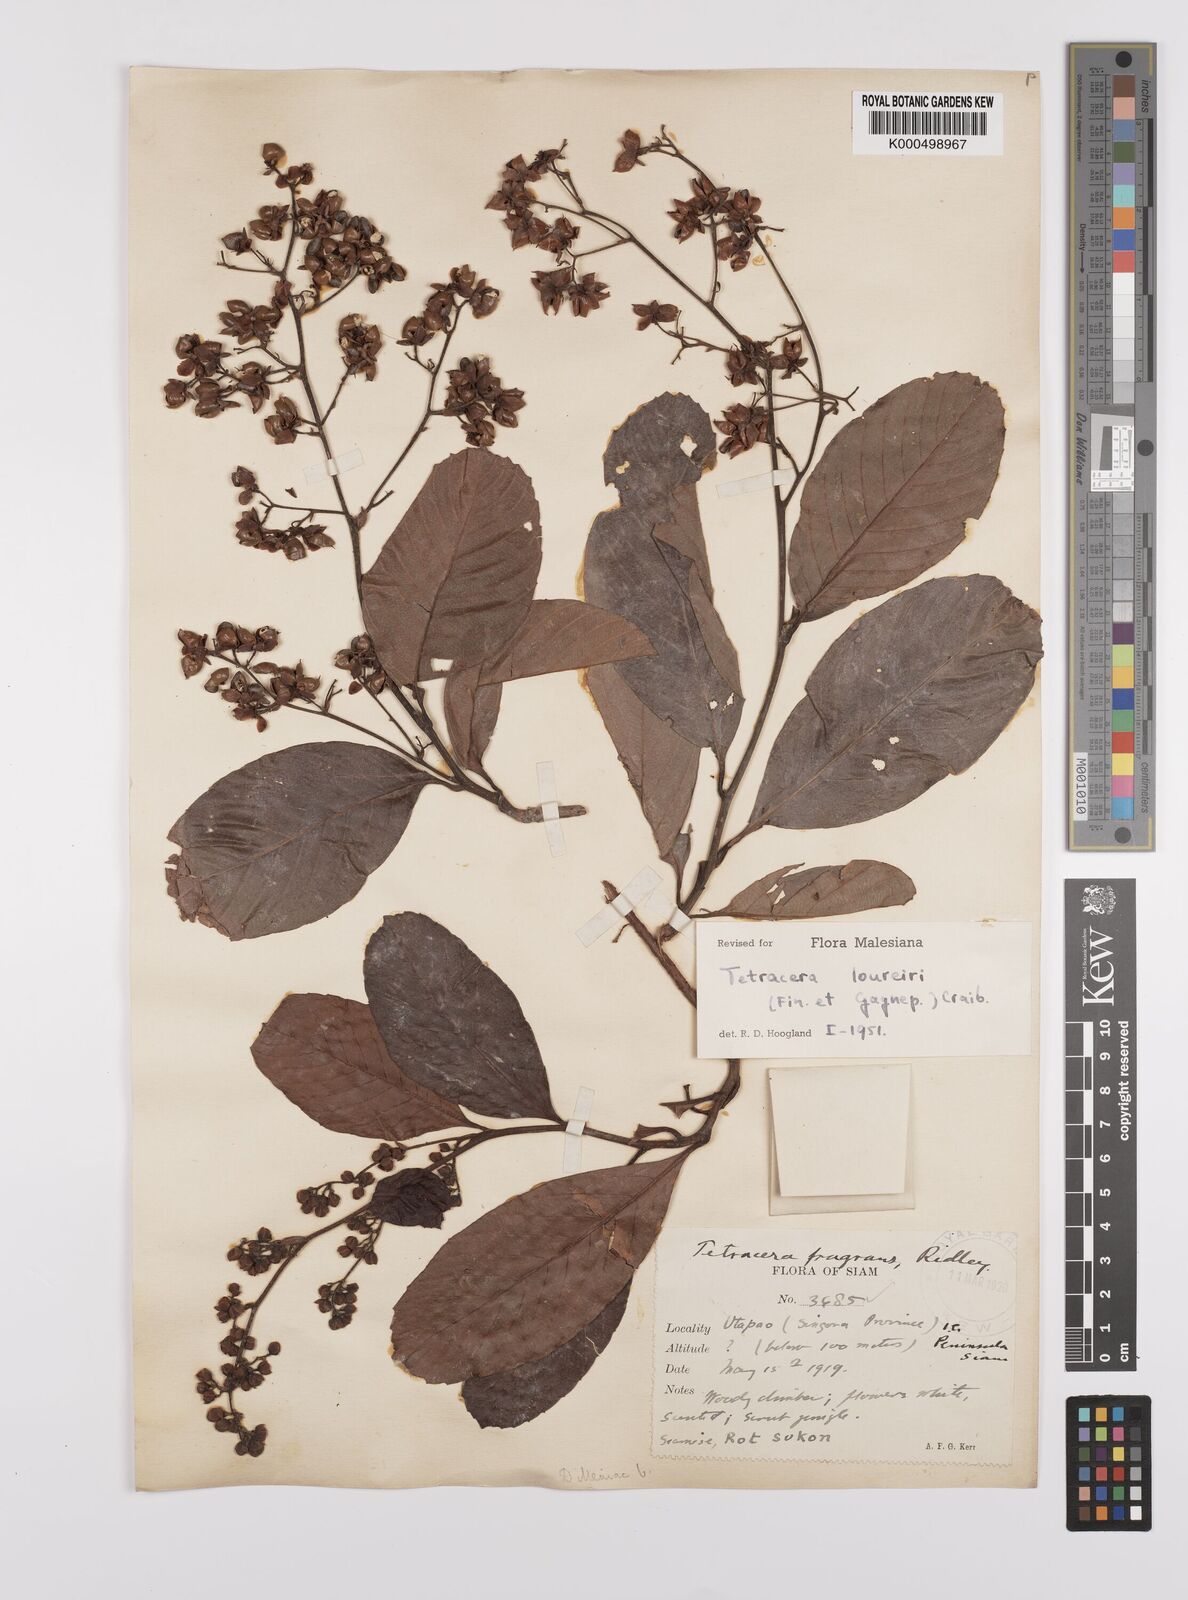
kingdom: Plantae
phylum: Tracheophyta
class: Magnoliopsida
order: Dilleniales
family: Dilleniaceae
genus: Tetracera
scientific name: Tetracera scandens
